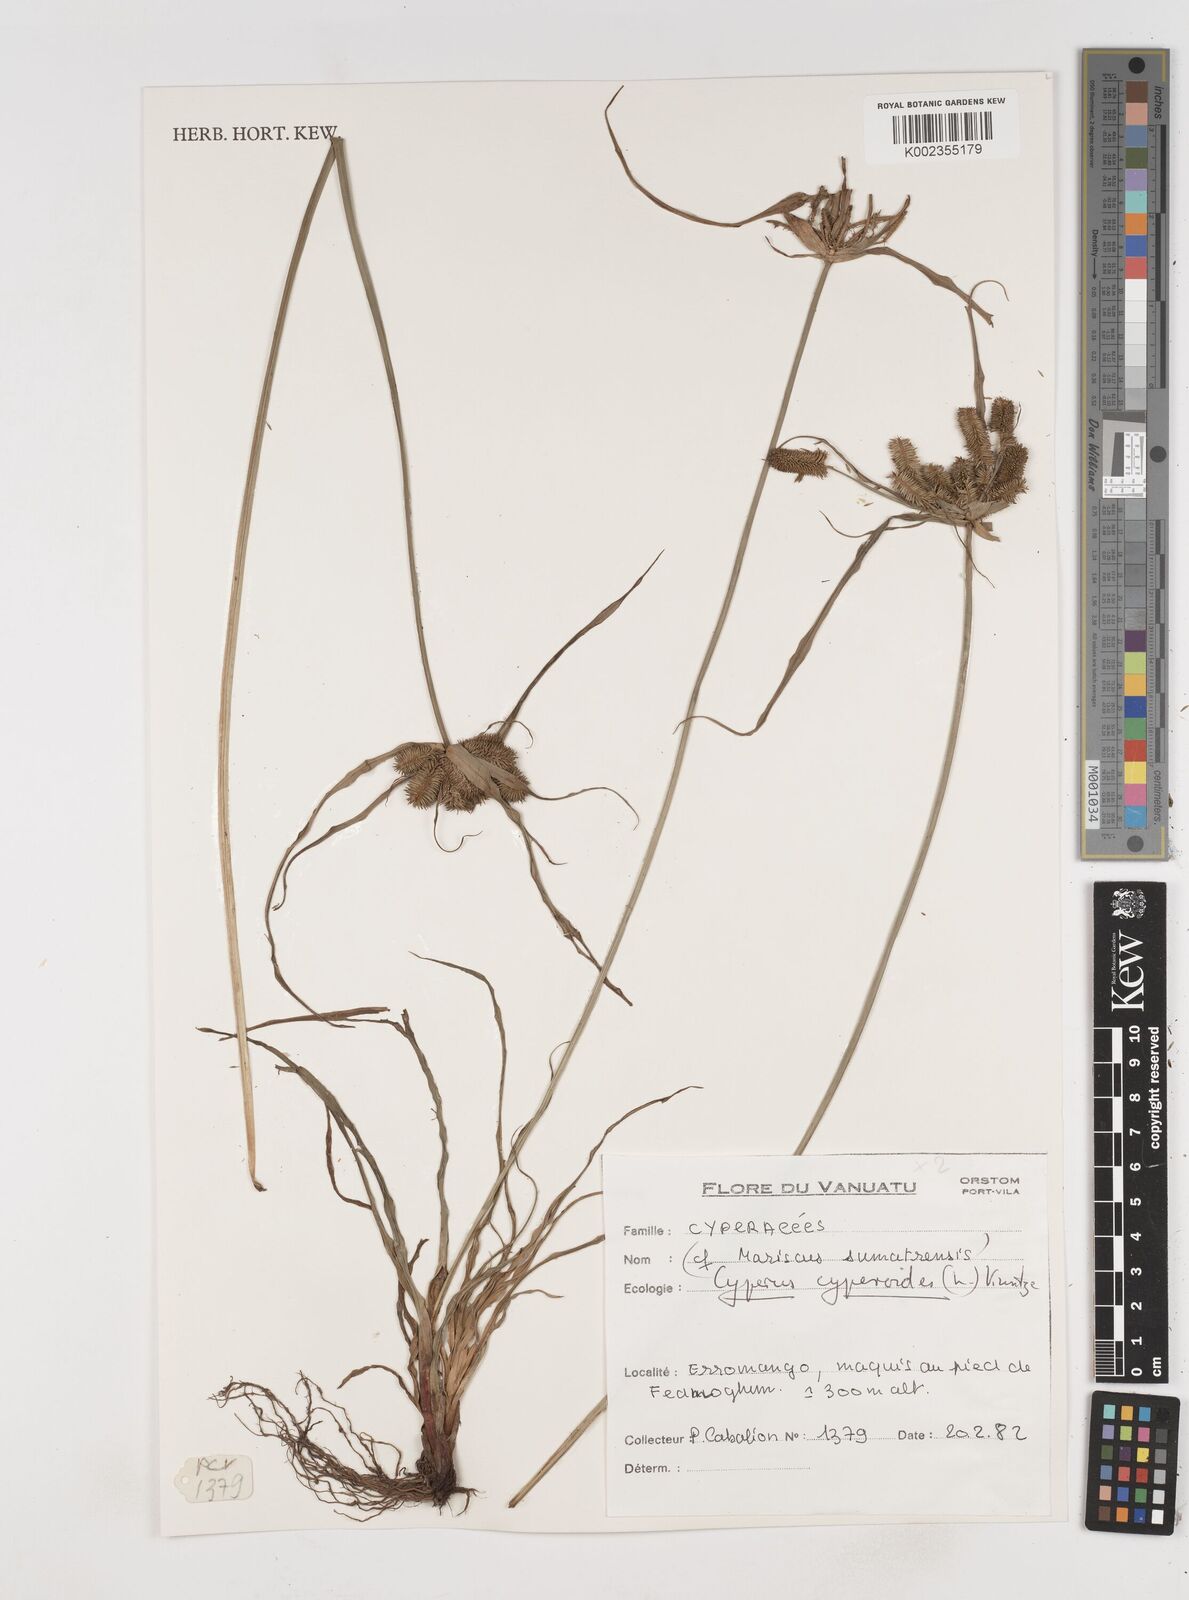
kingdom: Plantae
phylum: Tracheophyta
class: Liliopsida
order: Poales
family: Cyperaceae
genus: Cyperus
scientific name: Cyperus cyperoides
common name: Pacific island flat sedge
